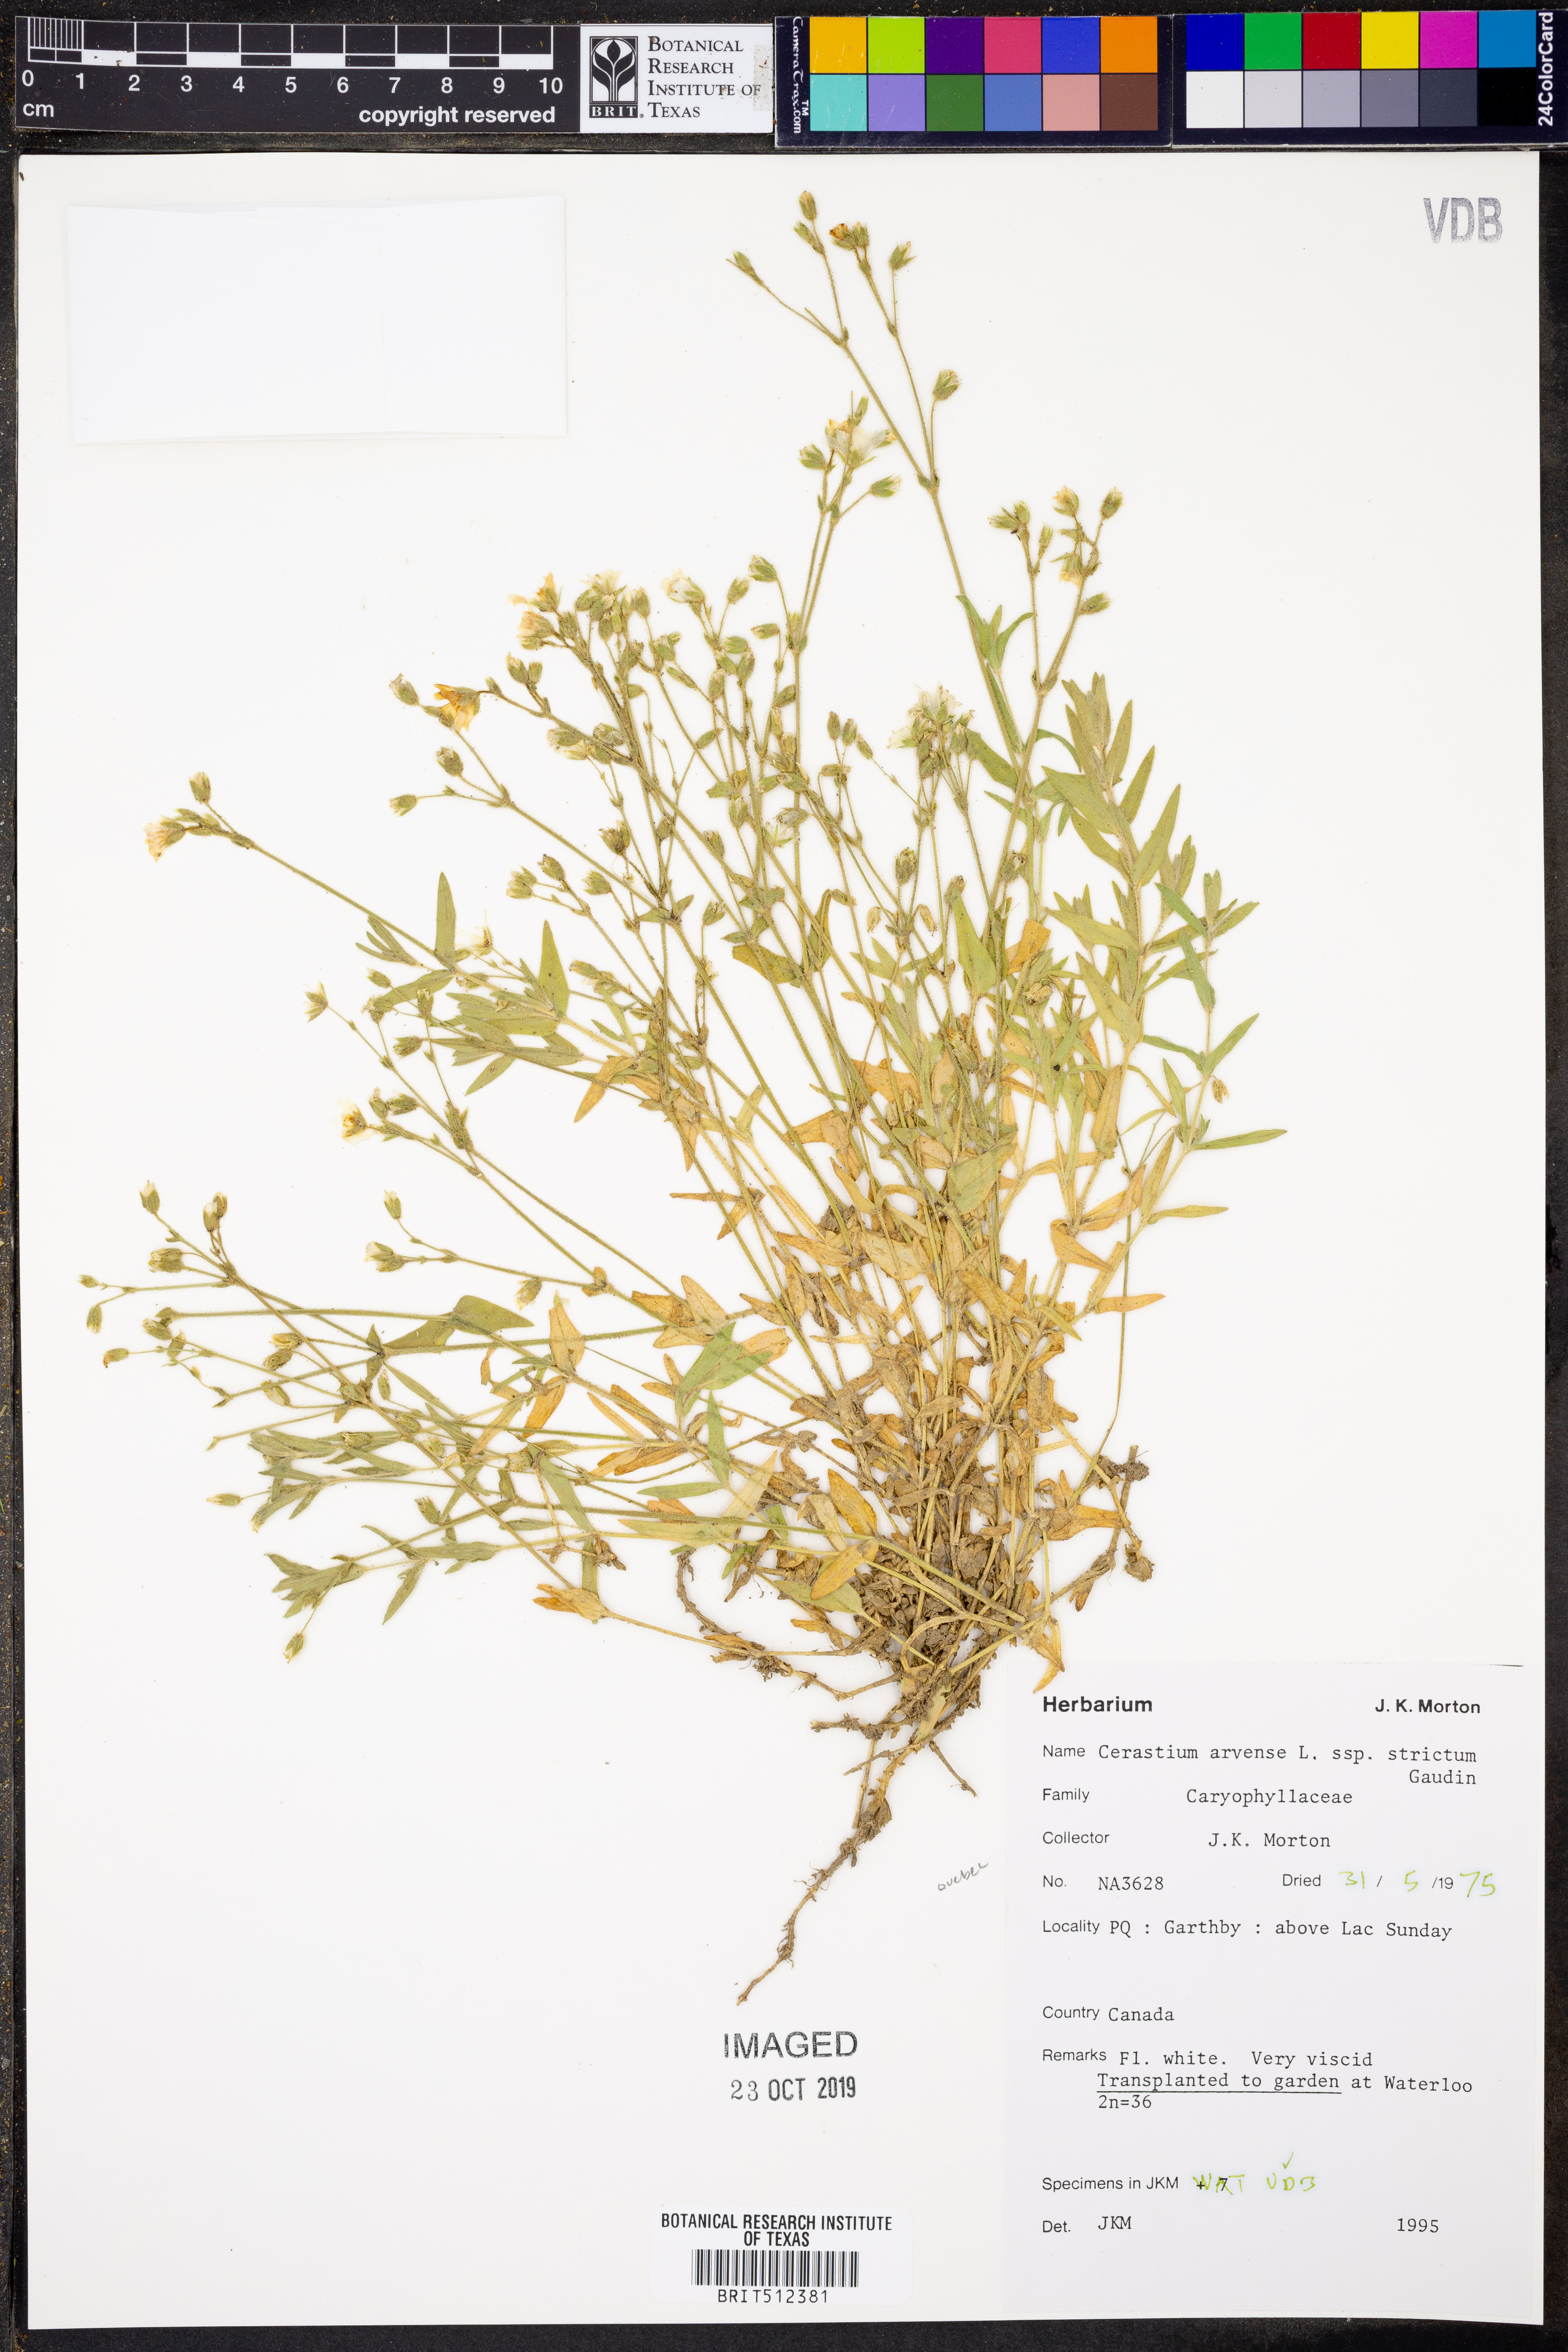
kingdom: Plantae
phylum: Tracheophyta
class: Magnoliopsida
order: Caryophyllales
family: Caryophyllaceae
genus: Cerastium
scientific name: Cerastium elongatum
